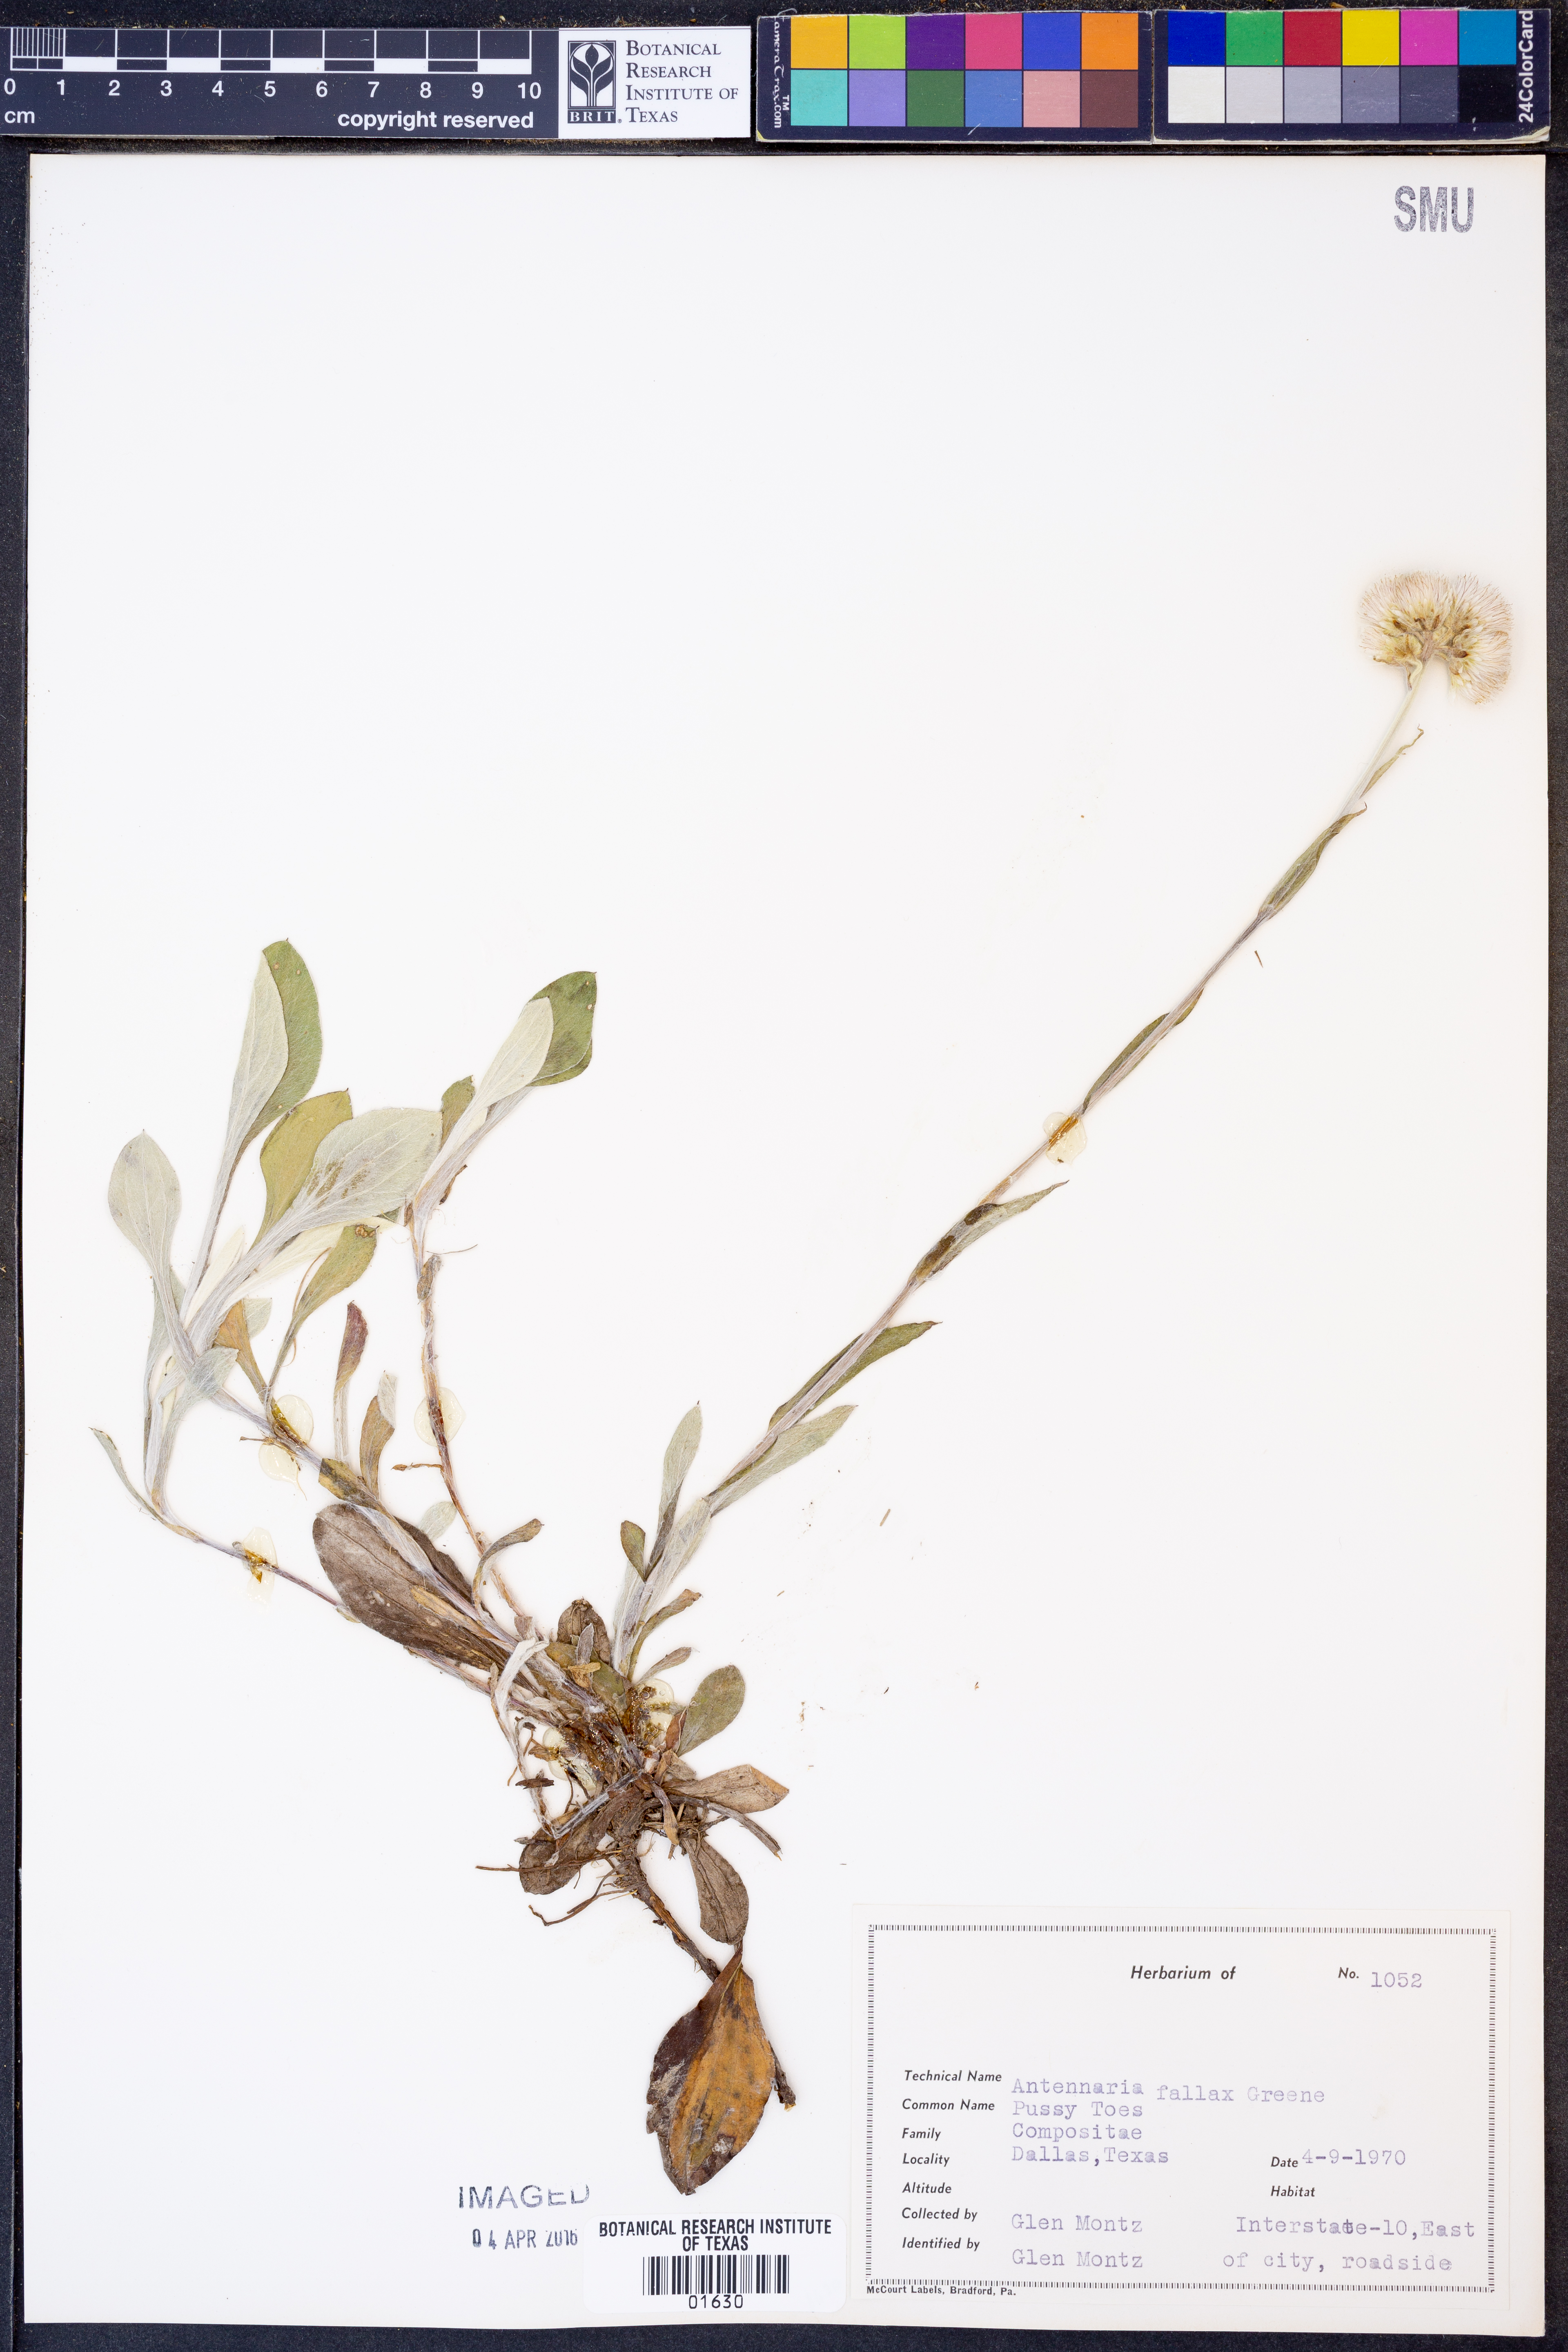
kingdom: Plantae
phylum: Tracheophyta
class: Magnoliopsida
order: Asterales
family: Asteraceae
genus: Antennaria
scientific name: Antennaria parlinii
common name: Parlin's pussytoes
